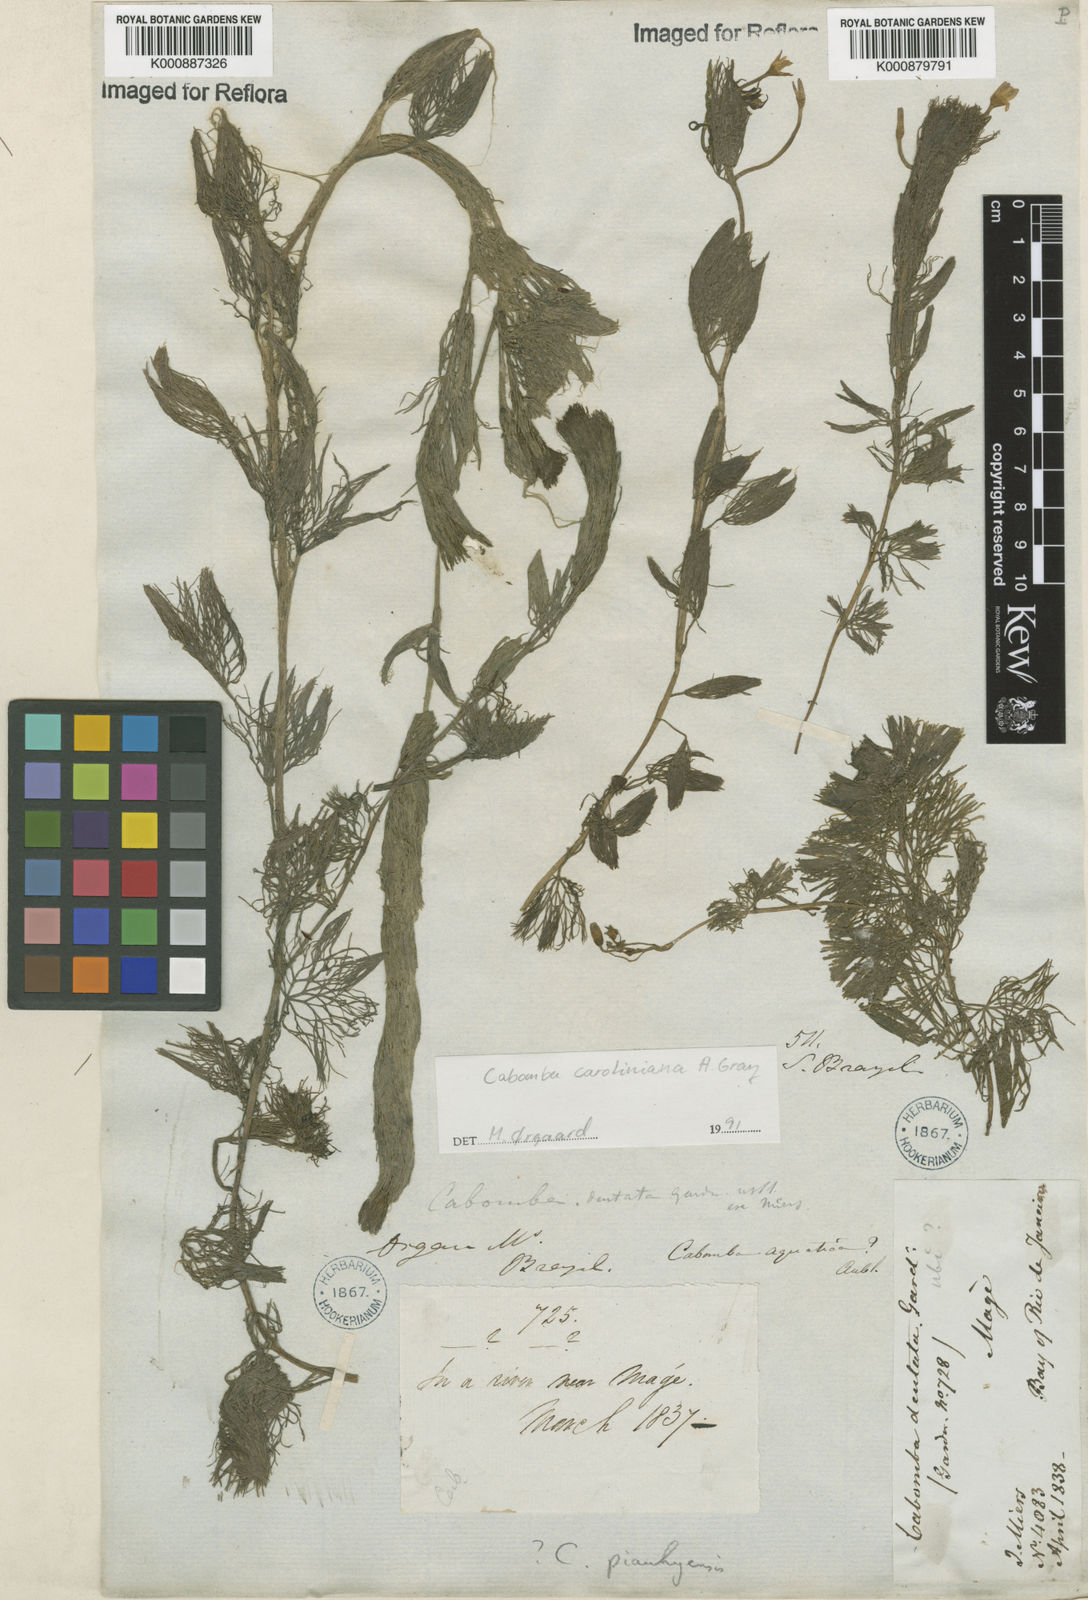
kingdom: Plantae
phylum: Tracheophyta
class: Magnoliopsida
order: Nymphaeales
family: Cabombaceae
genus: Cabomba
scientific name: Cabomba aquatica
